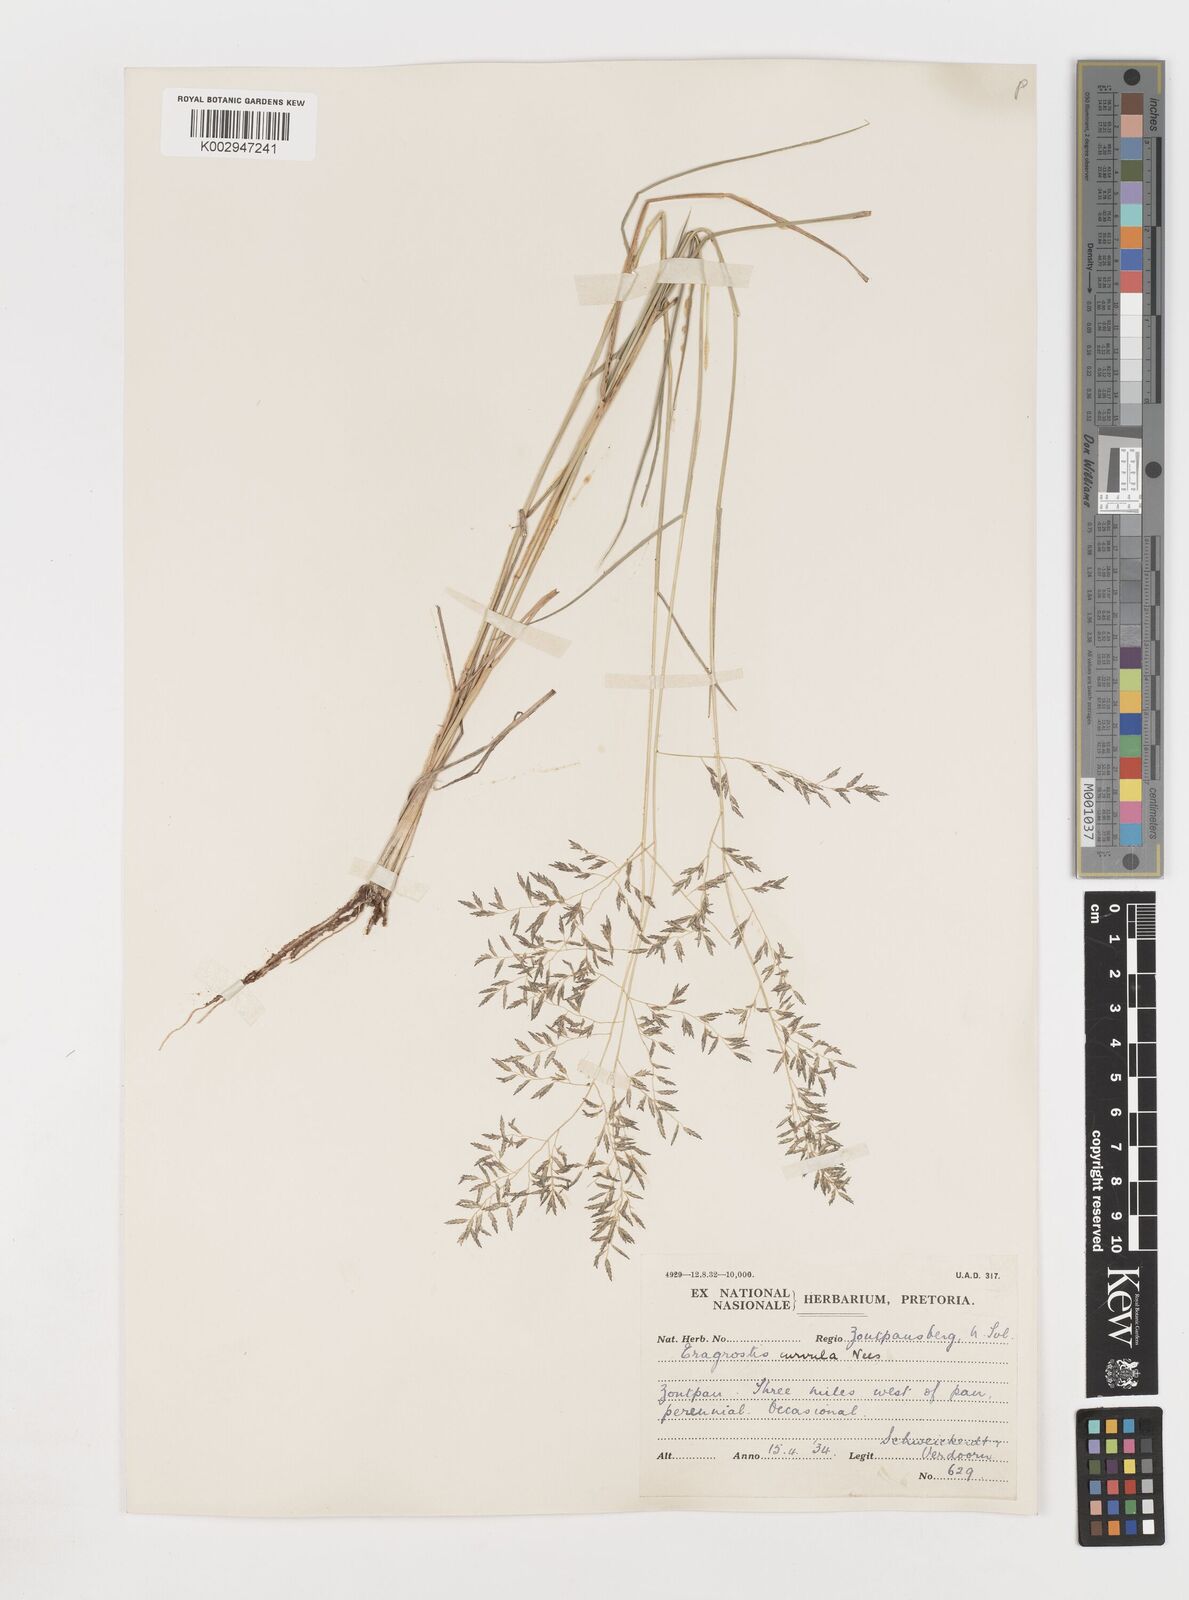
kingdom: Plantae
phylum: Tracheophyta
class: Liliopsida
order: Poales
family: Poaceae
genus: Eragrostis
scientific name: Eragrostis
